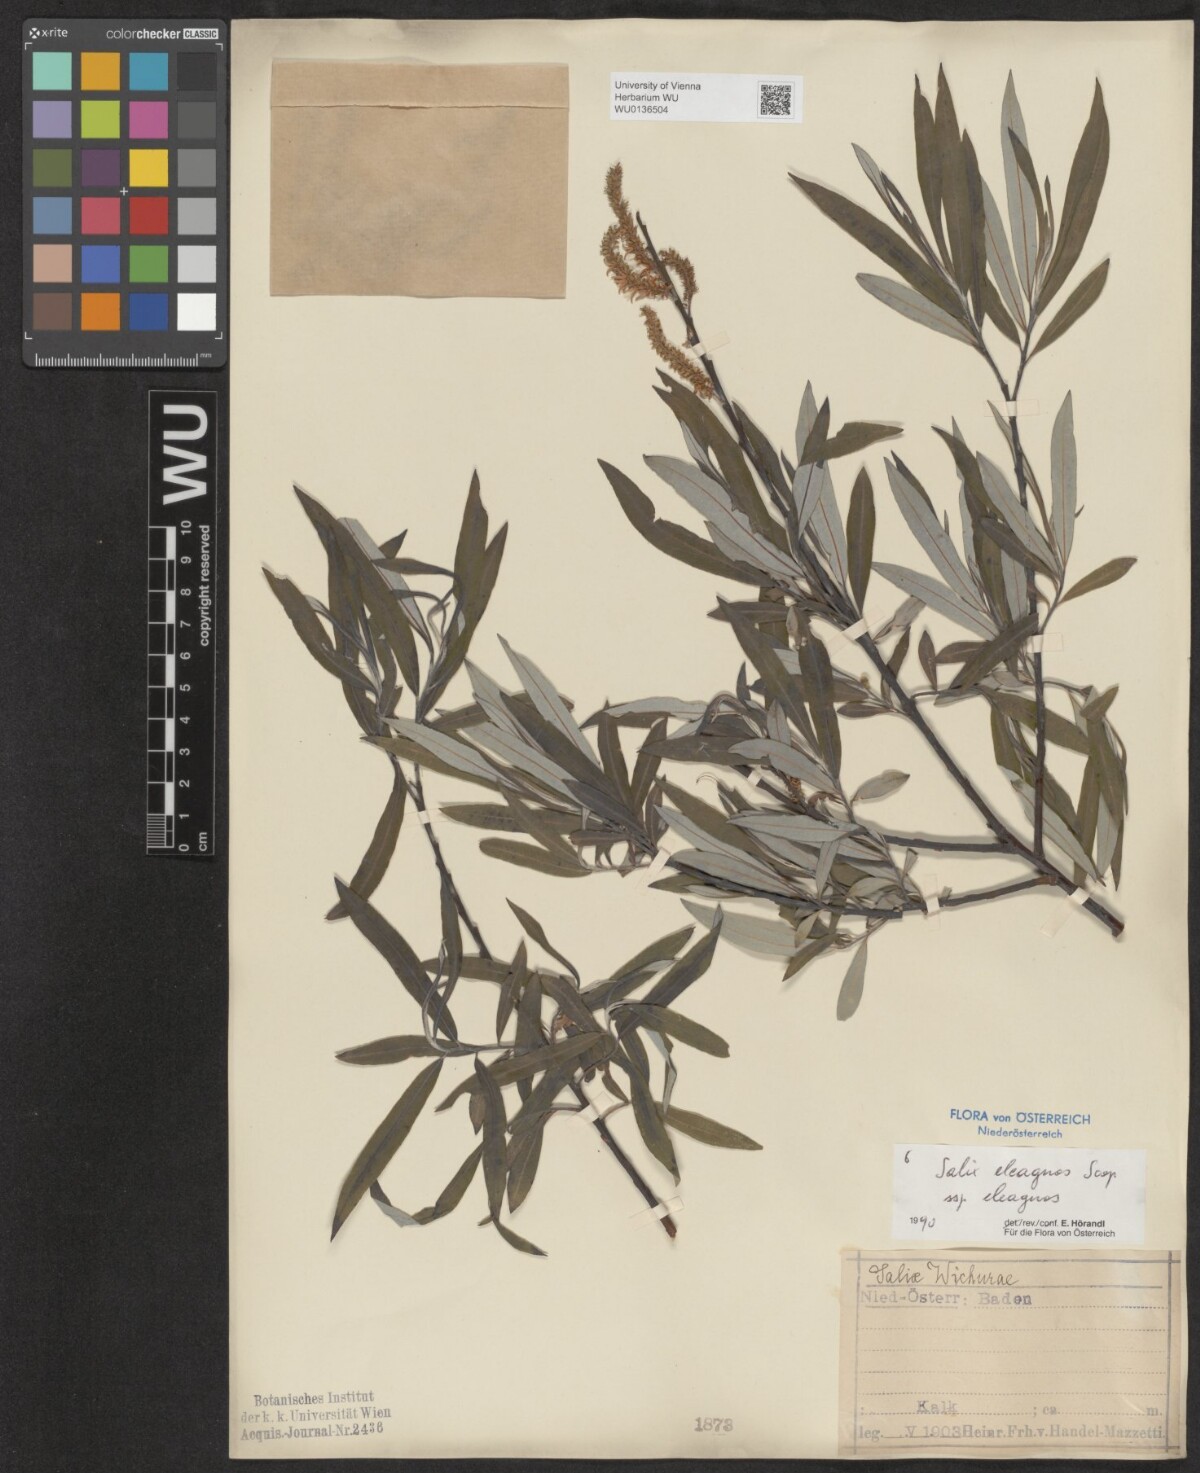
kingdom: Plantae
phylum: Tracheophyta
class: Magnoliopsida
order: Malpighiales
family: Salicaceae
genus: Salix
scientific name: Salix eleagnos
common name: Elaeagnus willow
